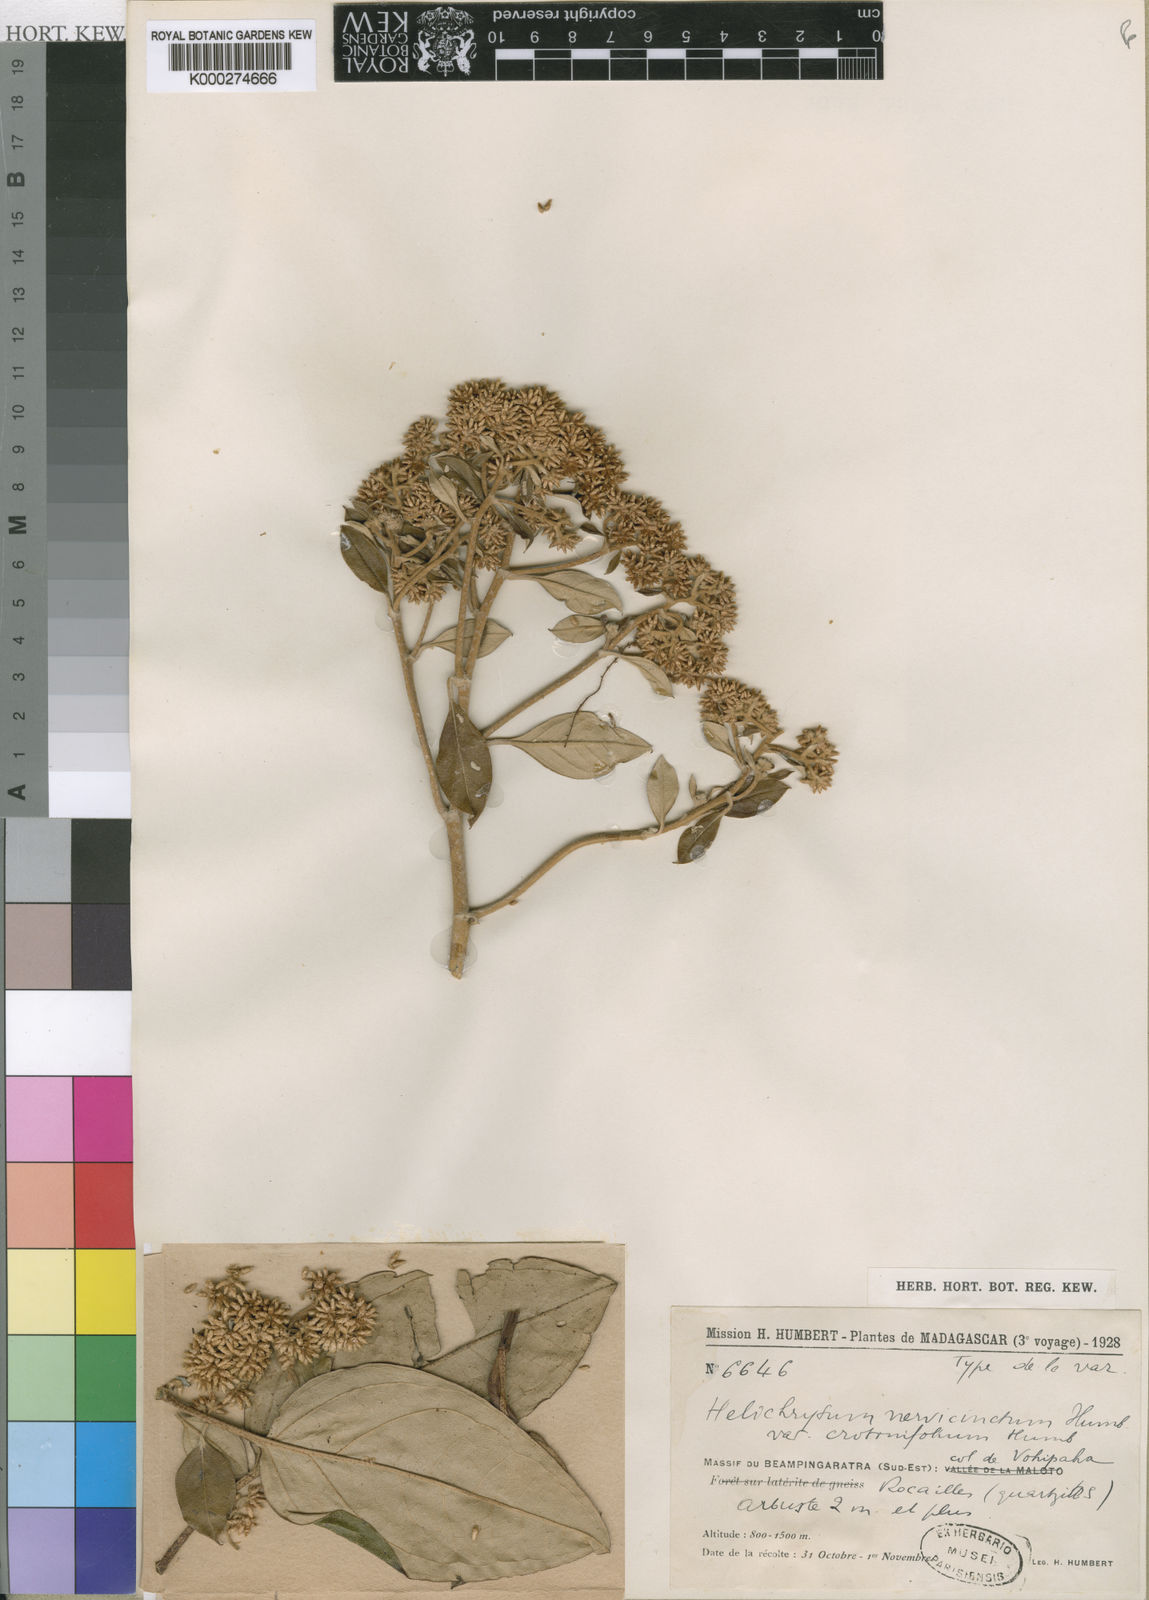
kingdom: Plantae
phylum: Tracheophyta
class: Magnoliopsida
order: Asterales
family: Asteraceae
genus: Helichrysum
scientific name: Helichrysum nervicinctum
